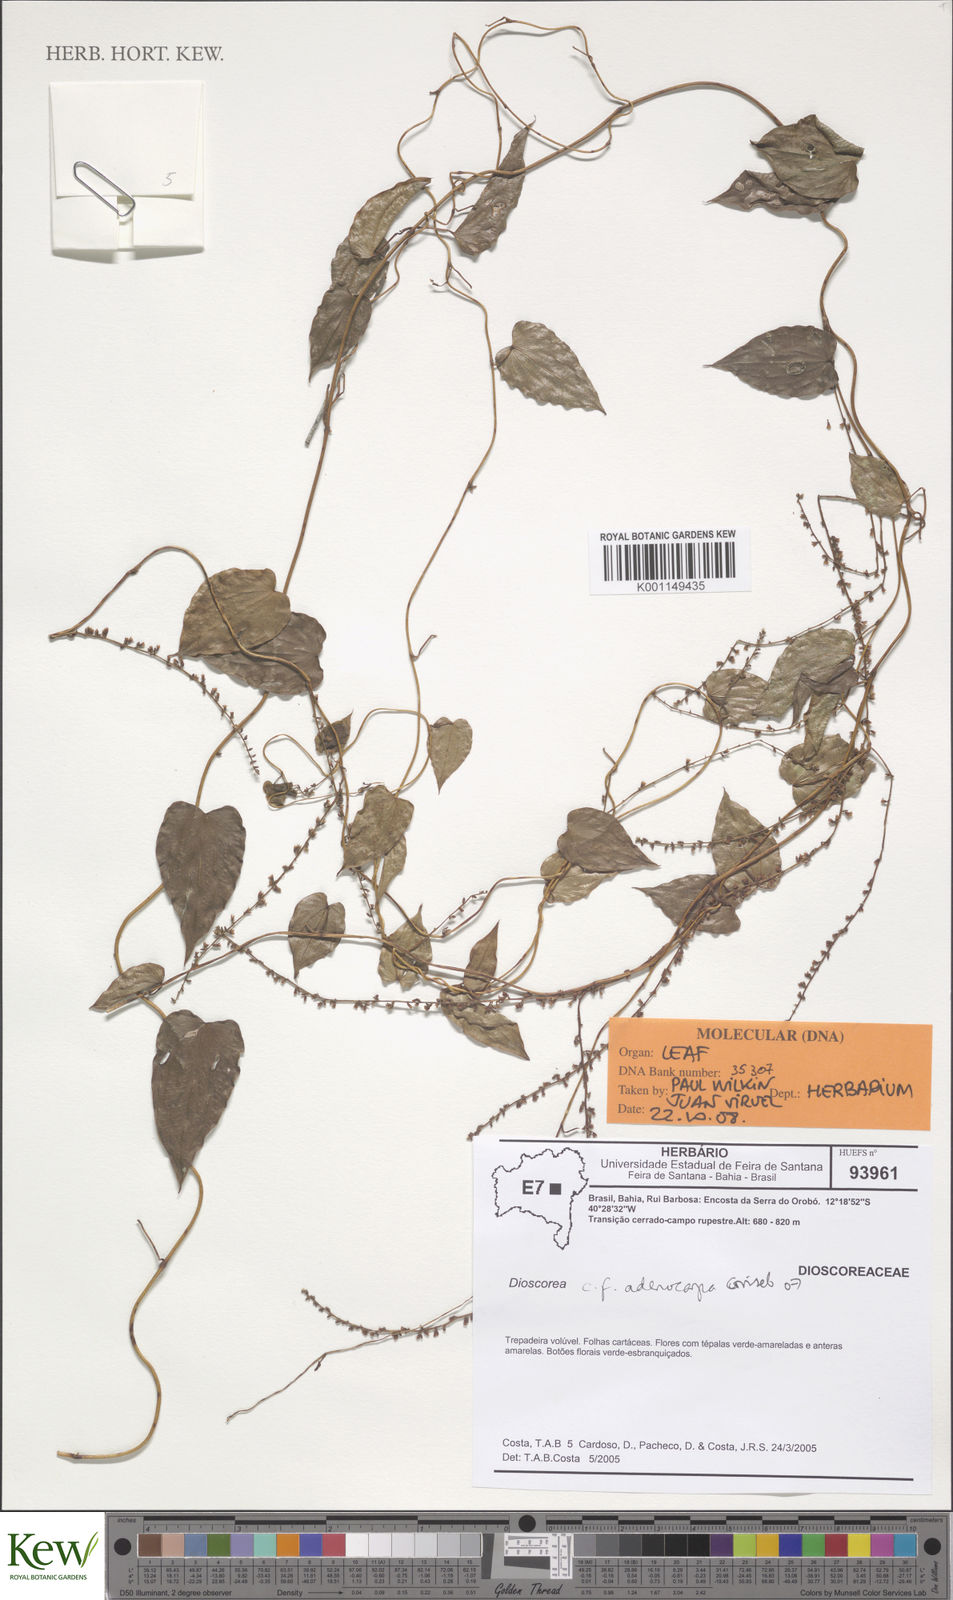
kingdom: Plantae
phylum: Tracheophyta
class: Liliopsida
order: Dioscoreales
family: Dioscoreaceae
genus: Dioscorea
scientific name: Dioscorea sincorensis
